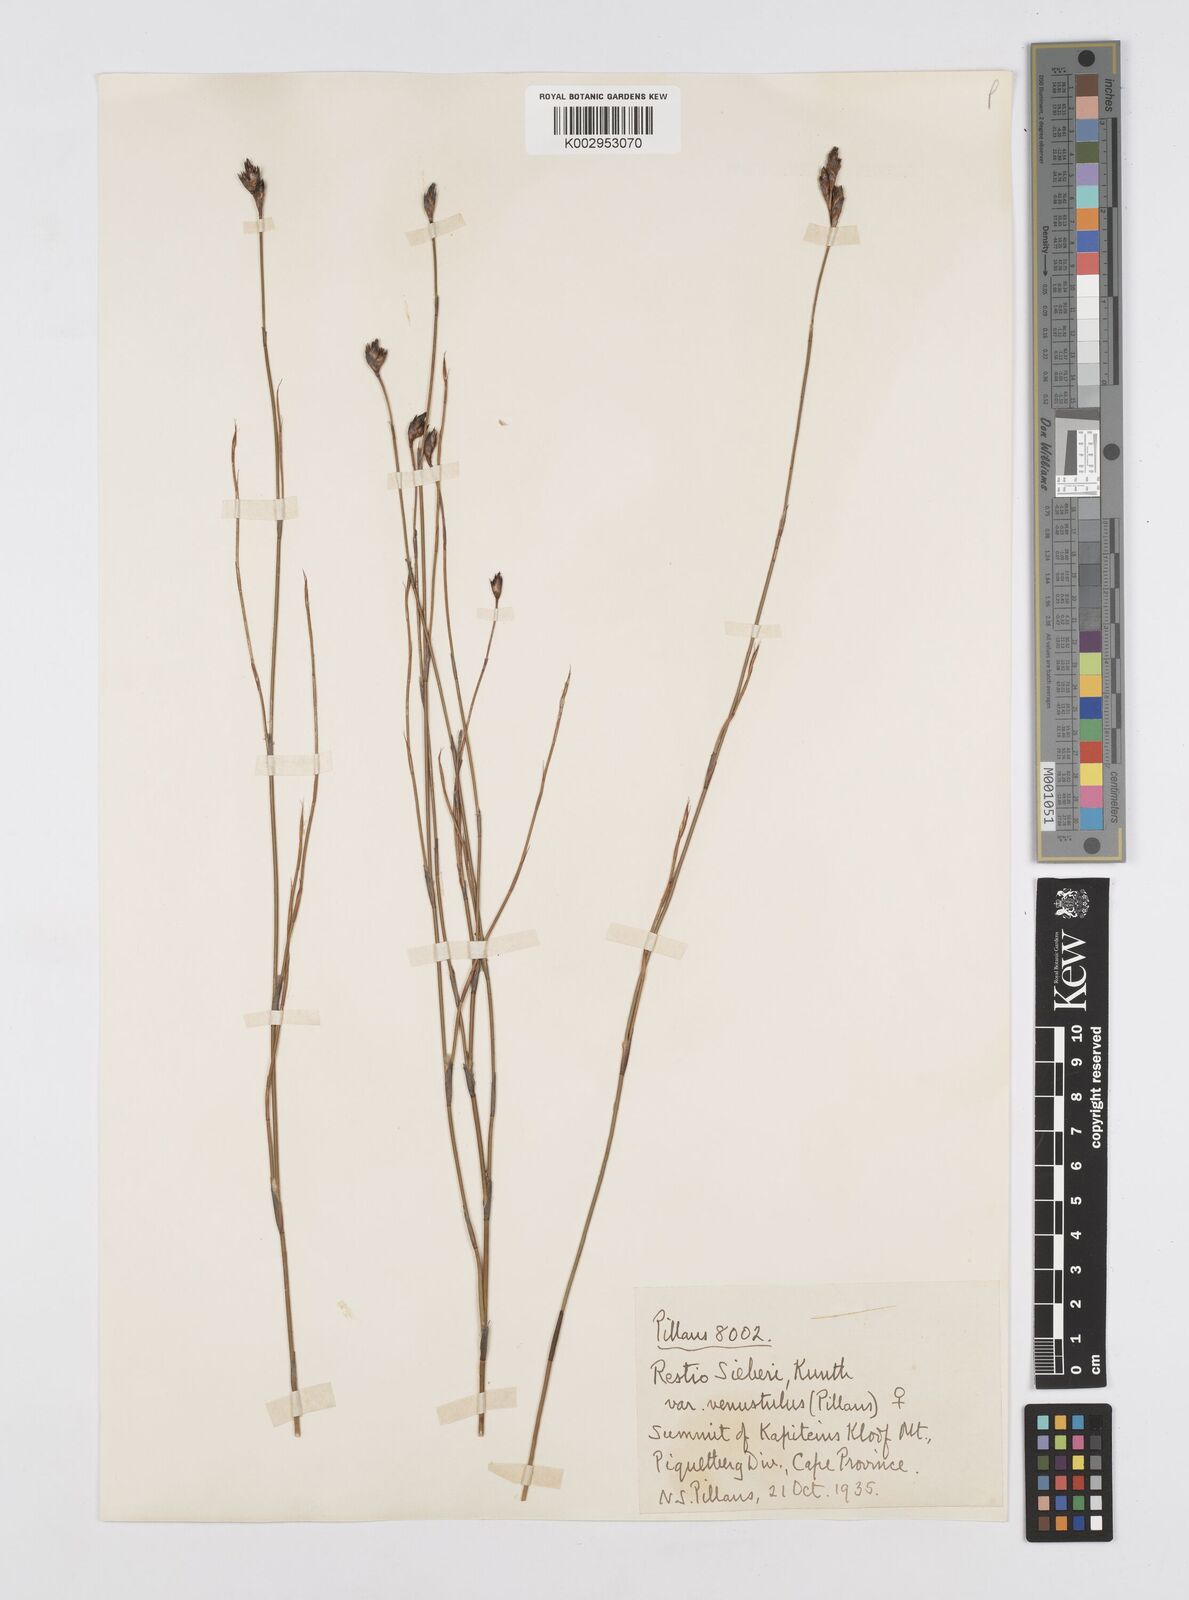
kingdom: Plantae
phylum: Tracheophyta
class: Liliopsida
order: Poales
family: Restionaceae
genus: Restio
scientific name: Restio sieberi
